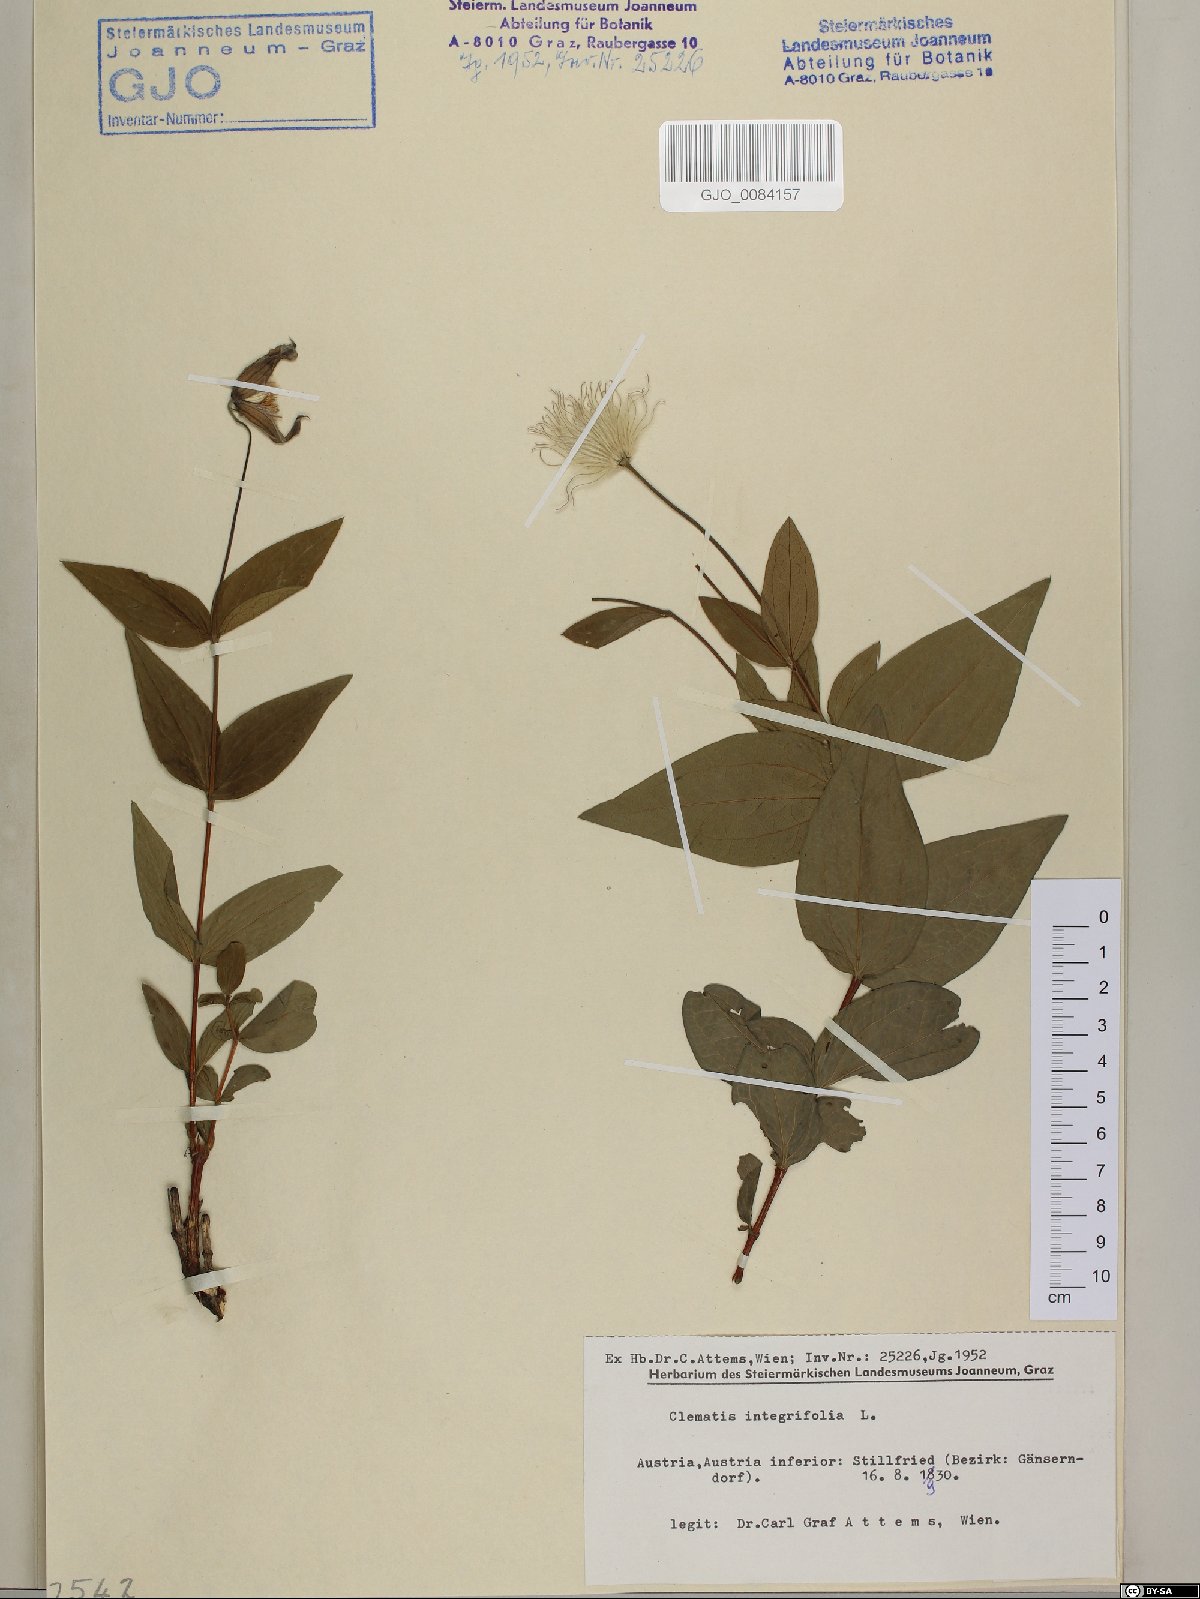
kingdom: Plantae
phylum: Tracheophyta
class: Magnoliopsida
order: Ranunculales
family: Ranunculaceae
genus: Clematis
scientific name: Clematis integrifolia
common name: Solitary clematis
